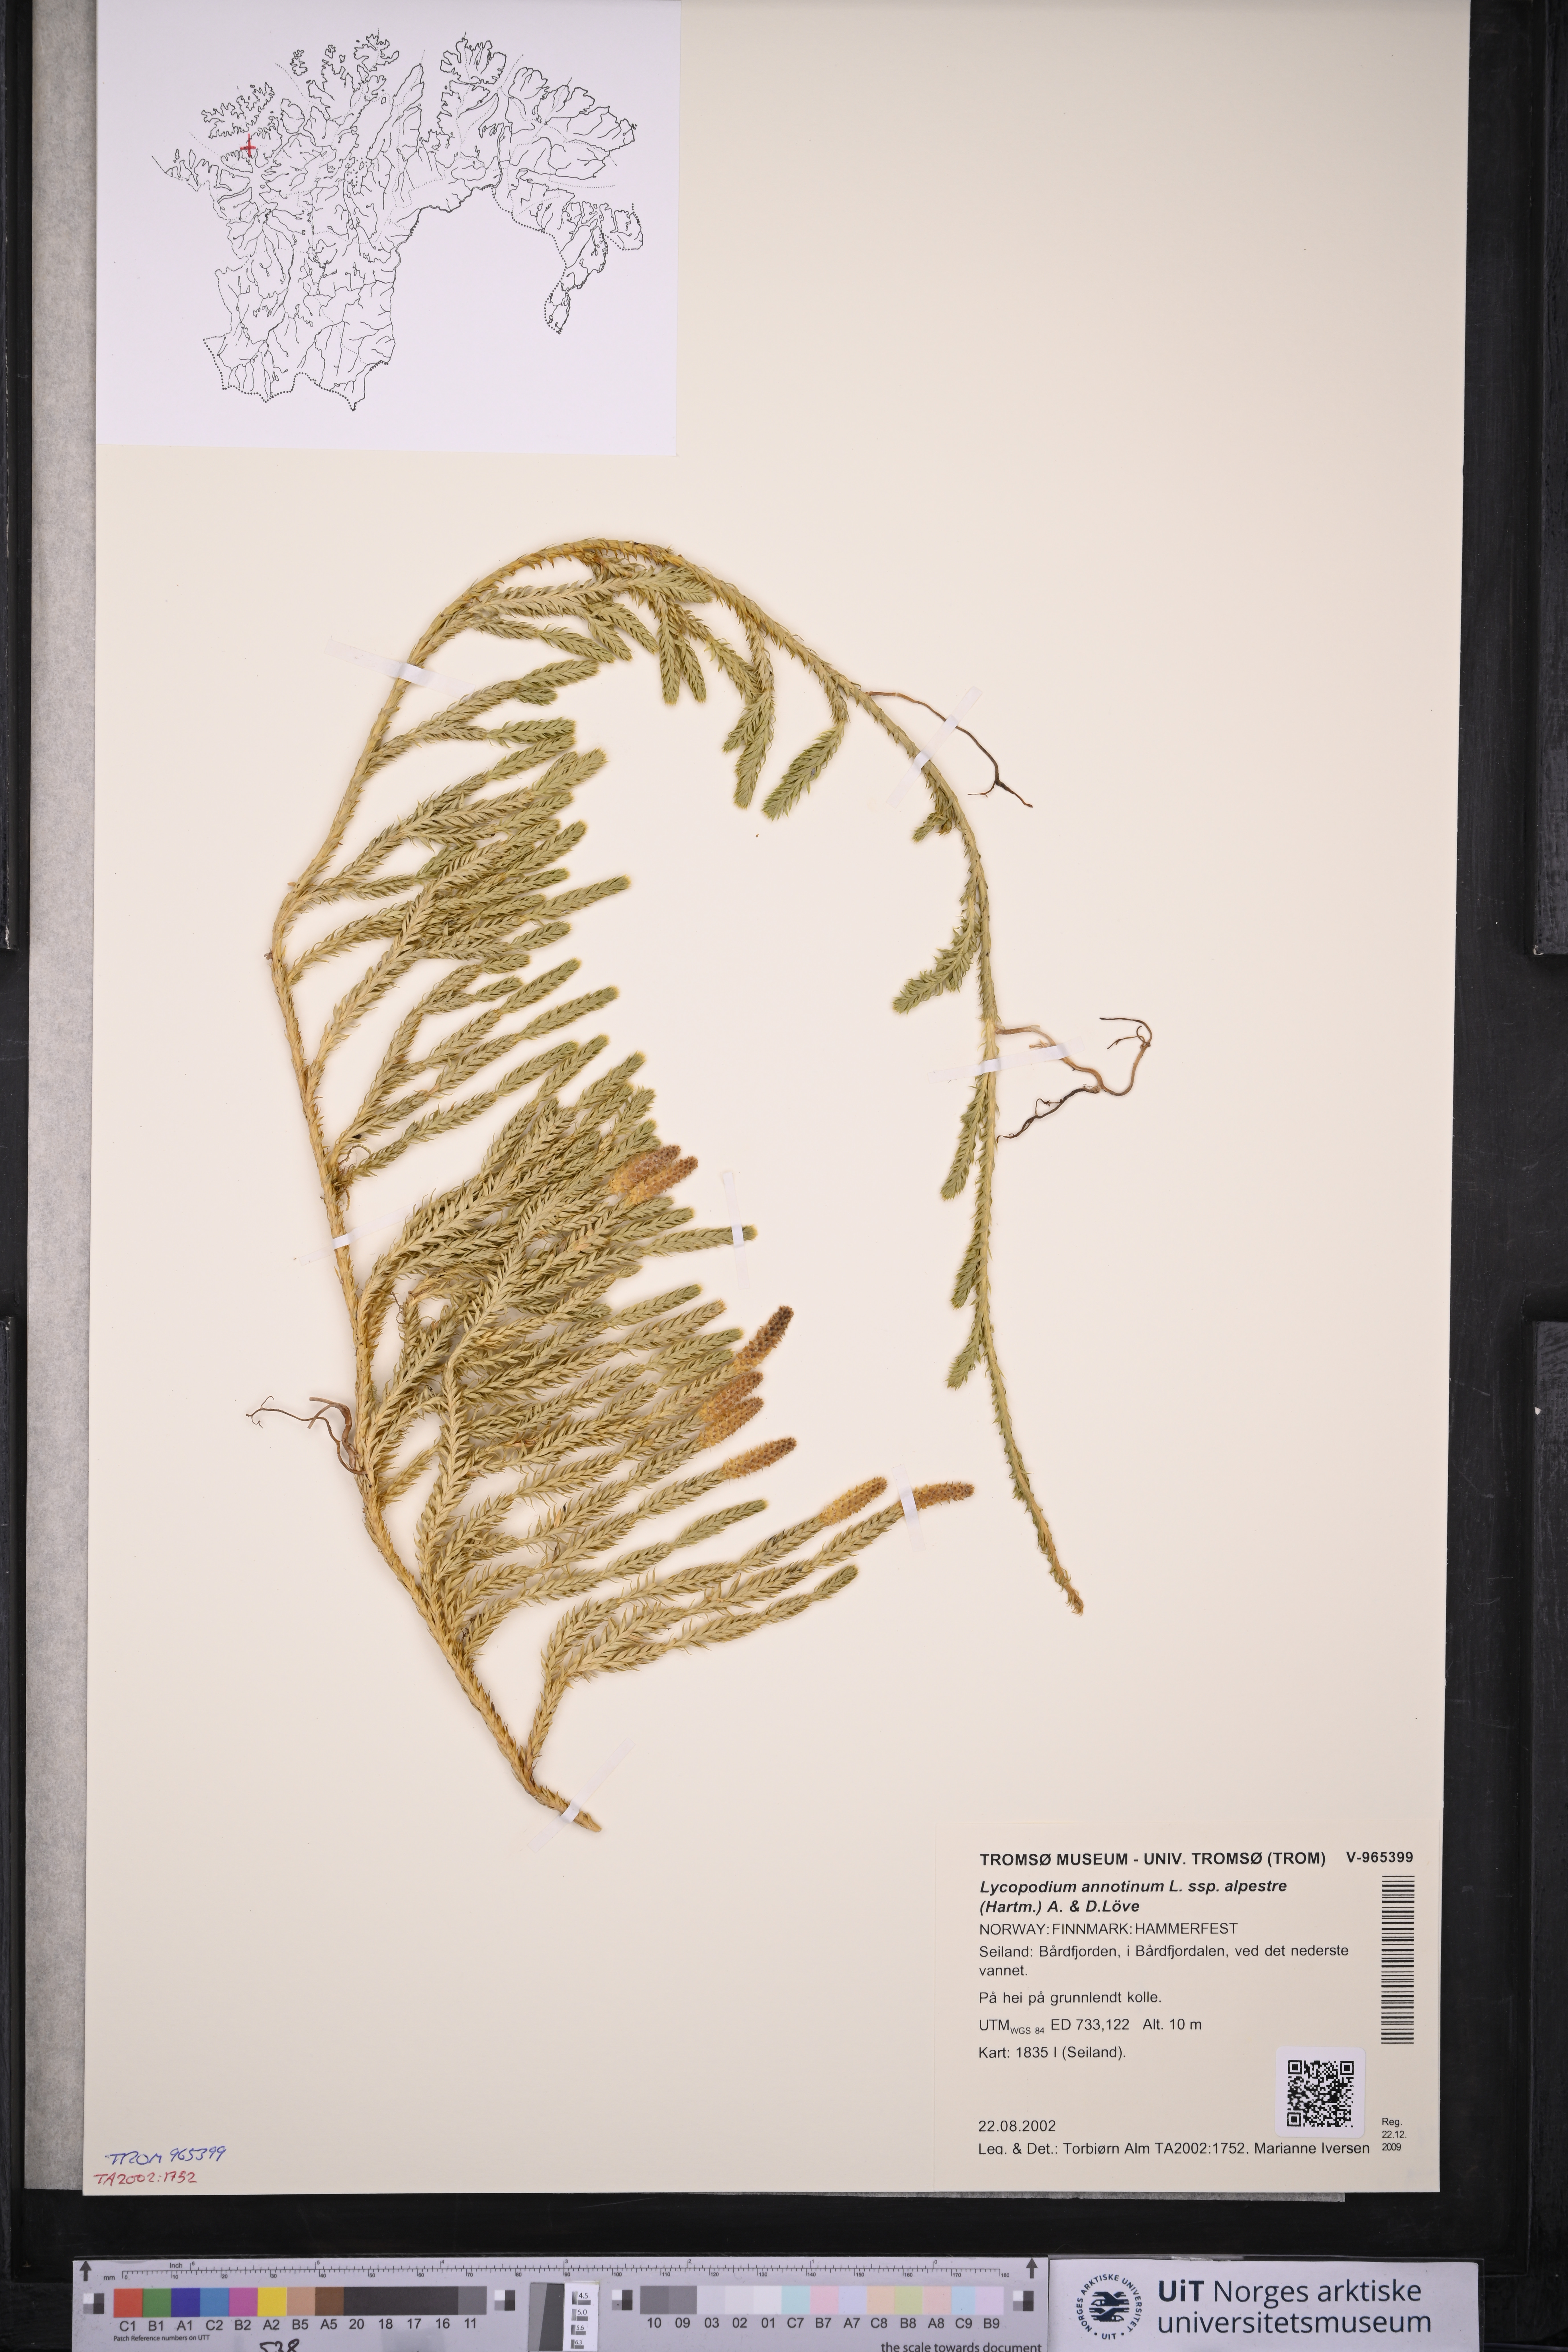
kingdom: Plantae
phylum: Tracheophyta
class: Lycopodiopsida
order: Lycopodiales
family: Lycopodiaceae
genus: Spinulum
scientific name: Spinulum annotinum
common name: Interrupted club-moss
